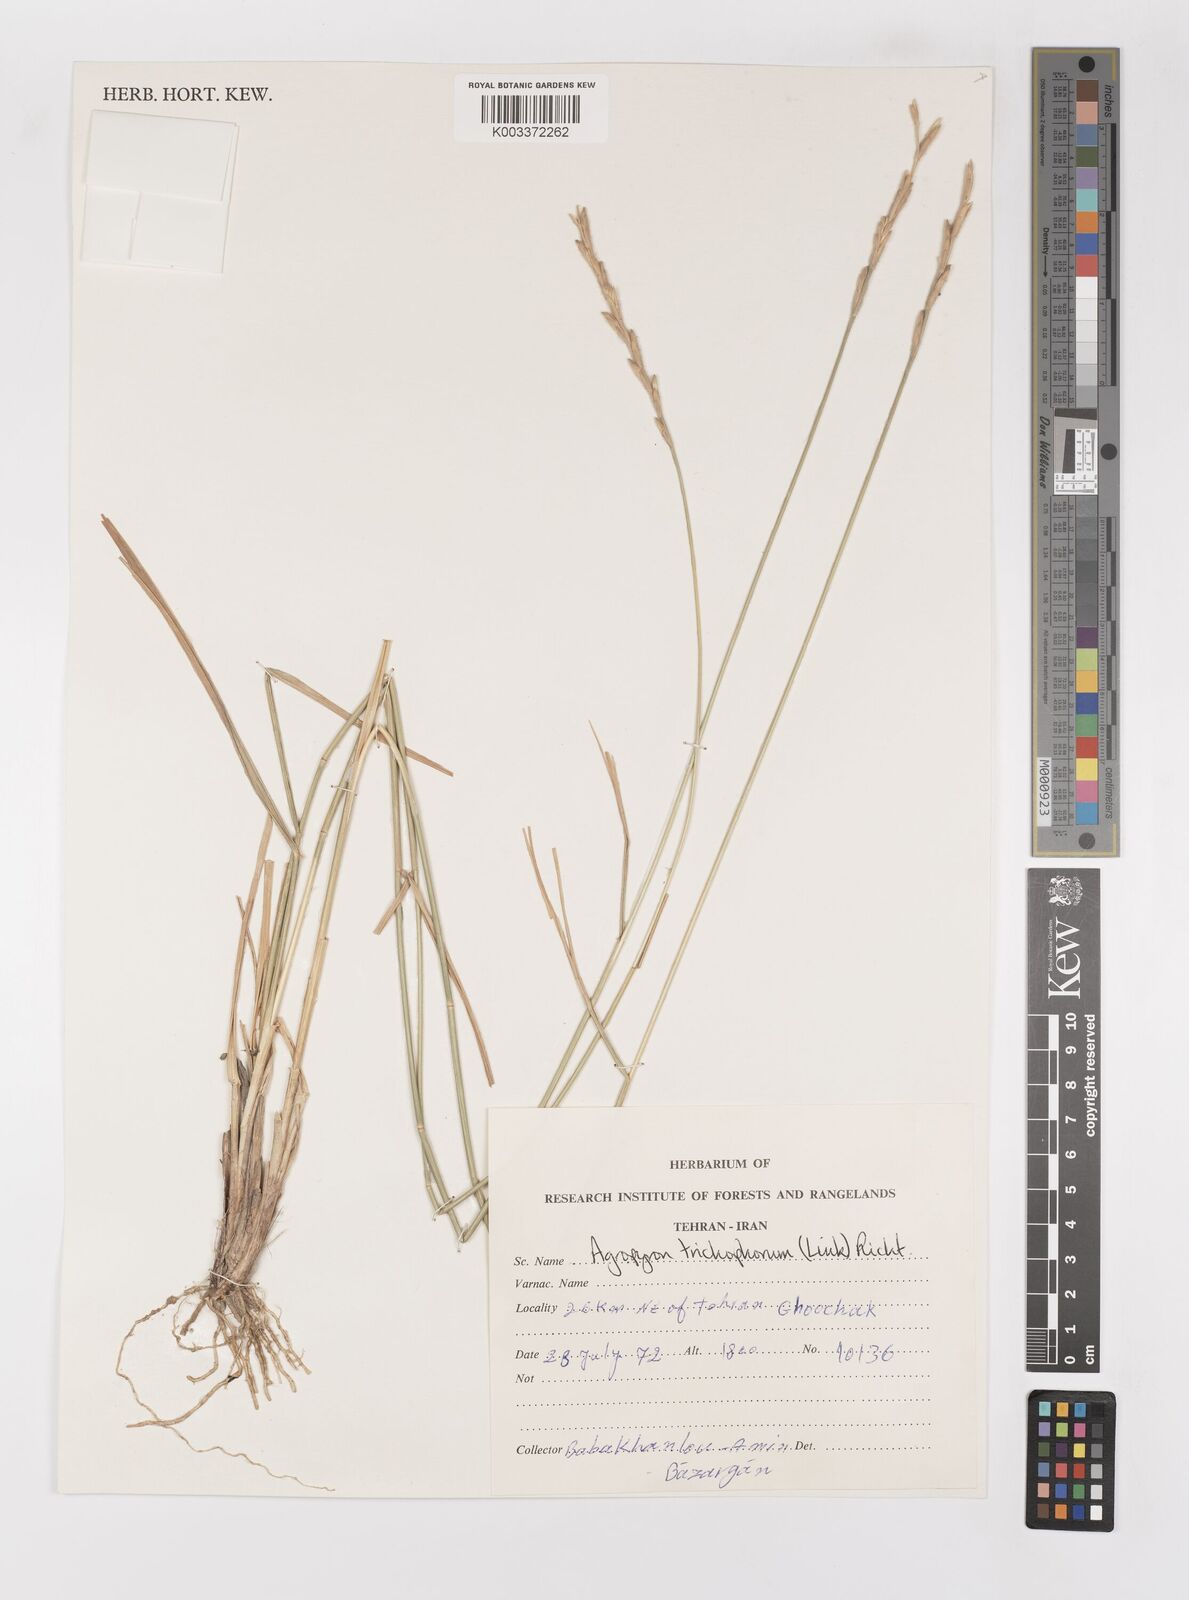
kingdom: Plantae
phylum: Tracheophyta
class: Liliopsida
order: Poales
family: Poaceae
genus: Thinopyrum
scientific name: Thinopyrum intermedium
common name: Intermediate wheatgrass
